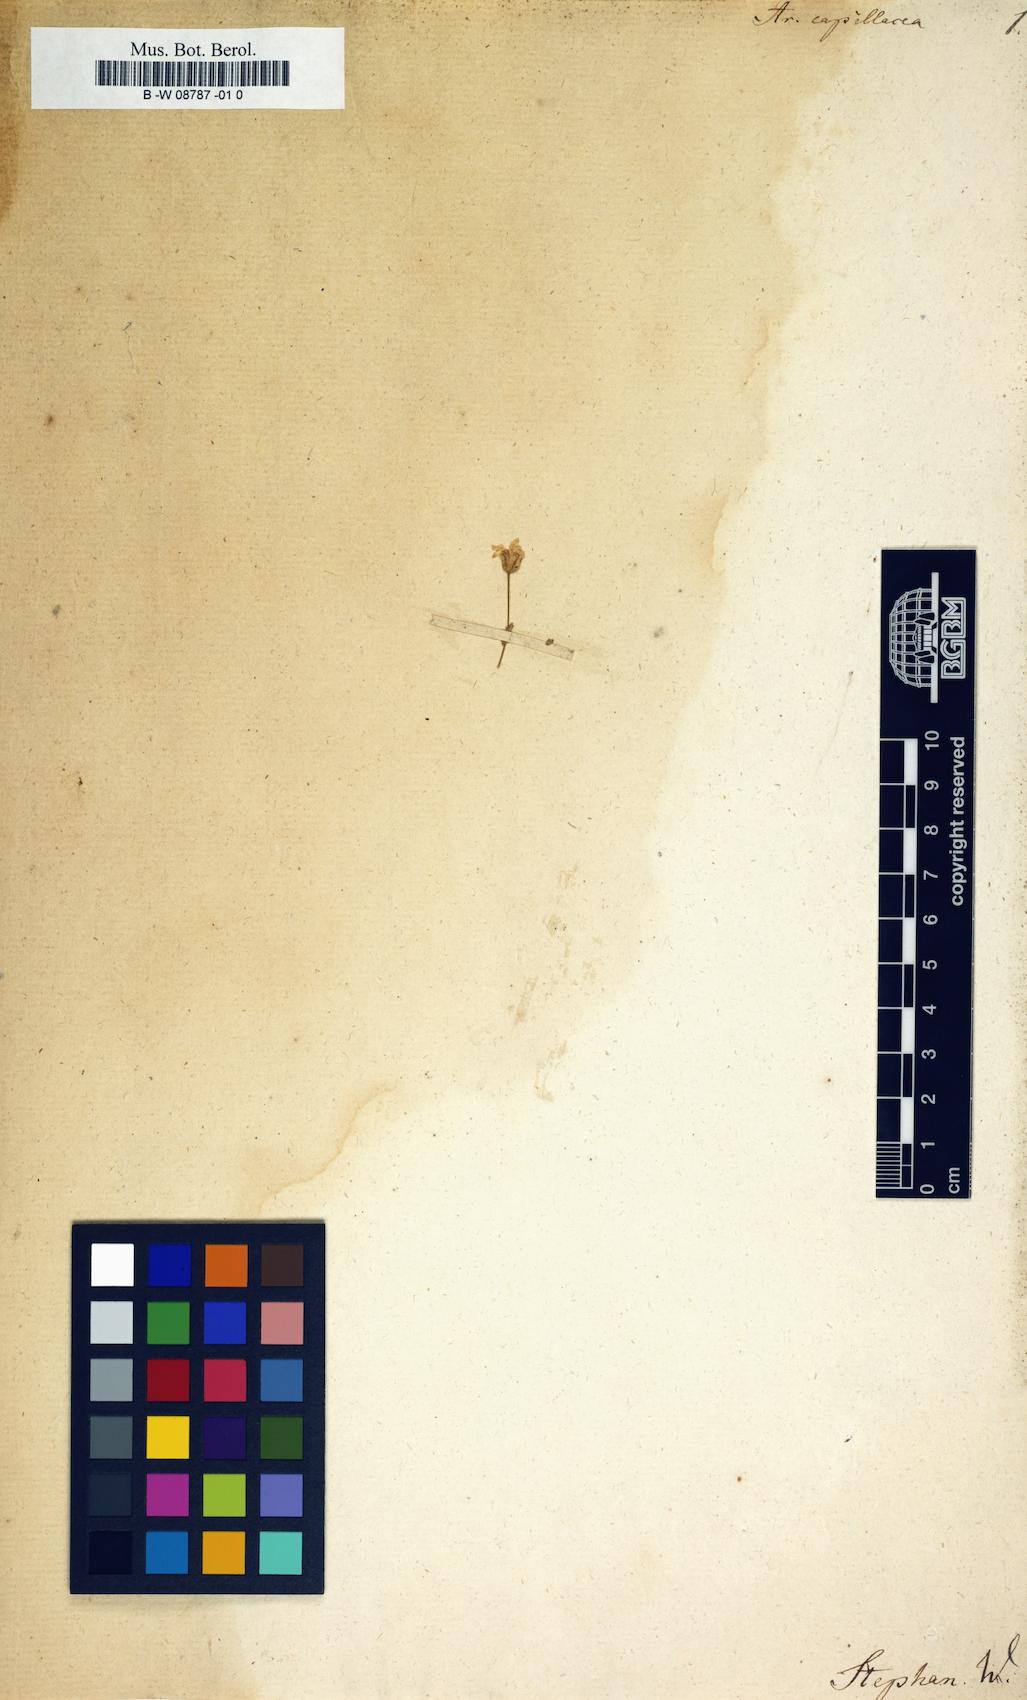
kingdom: Plantae
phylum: Tracheophyta
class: Magnoliopsida
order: Caryophyllales
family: Caryophyllaceae
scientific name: Caryophyllaceae
